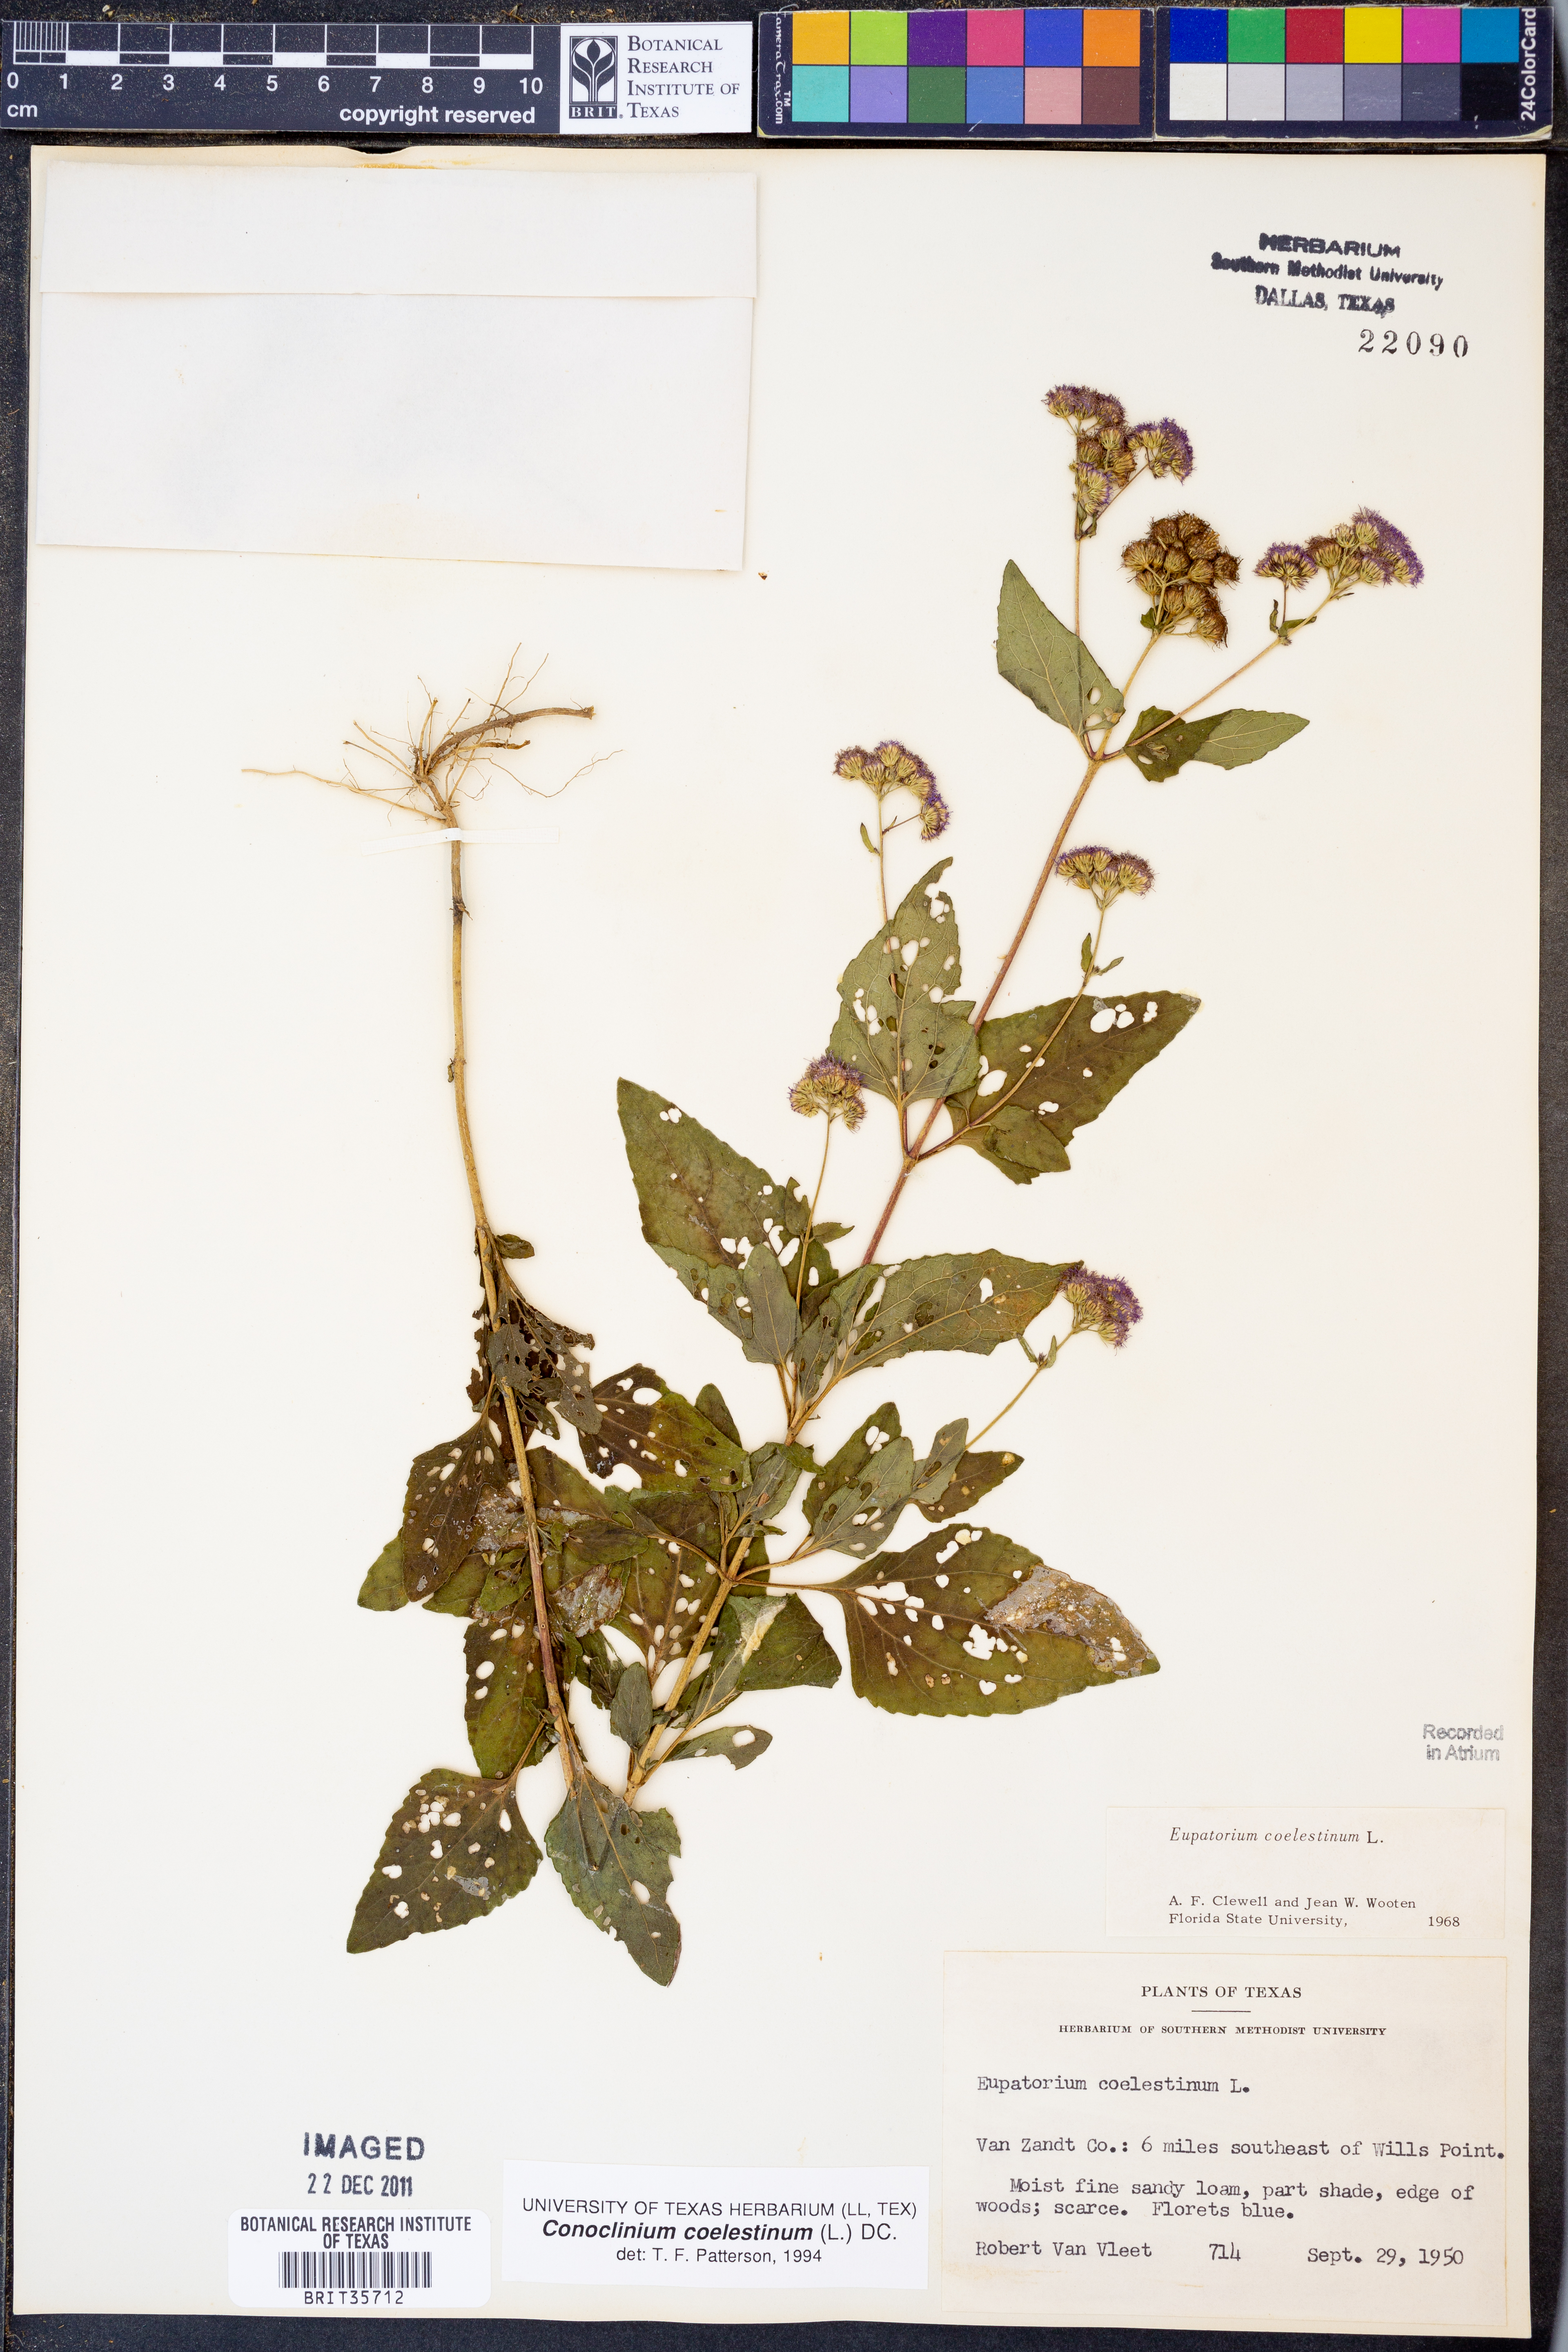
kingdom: Plantae
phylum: Tracheophyta
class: Magnoliopsida
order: Asterales
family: Asteraceae
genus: Conoclinium
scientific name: Conoclinium coelestinum
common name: Blue mistflower
